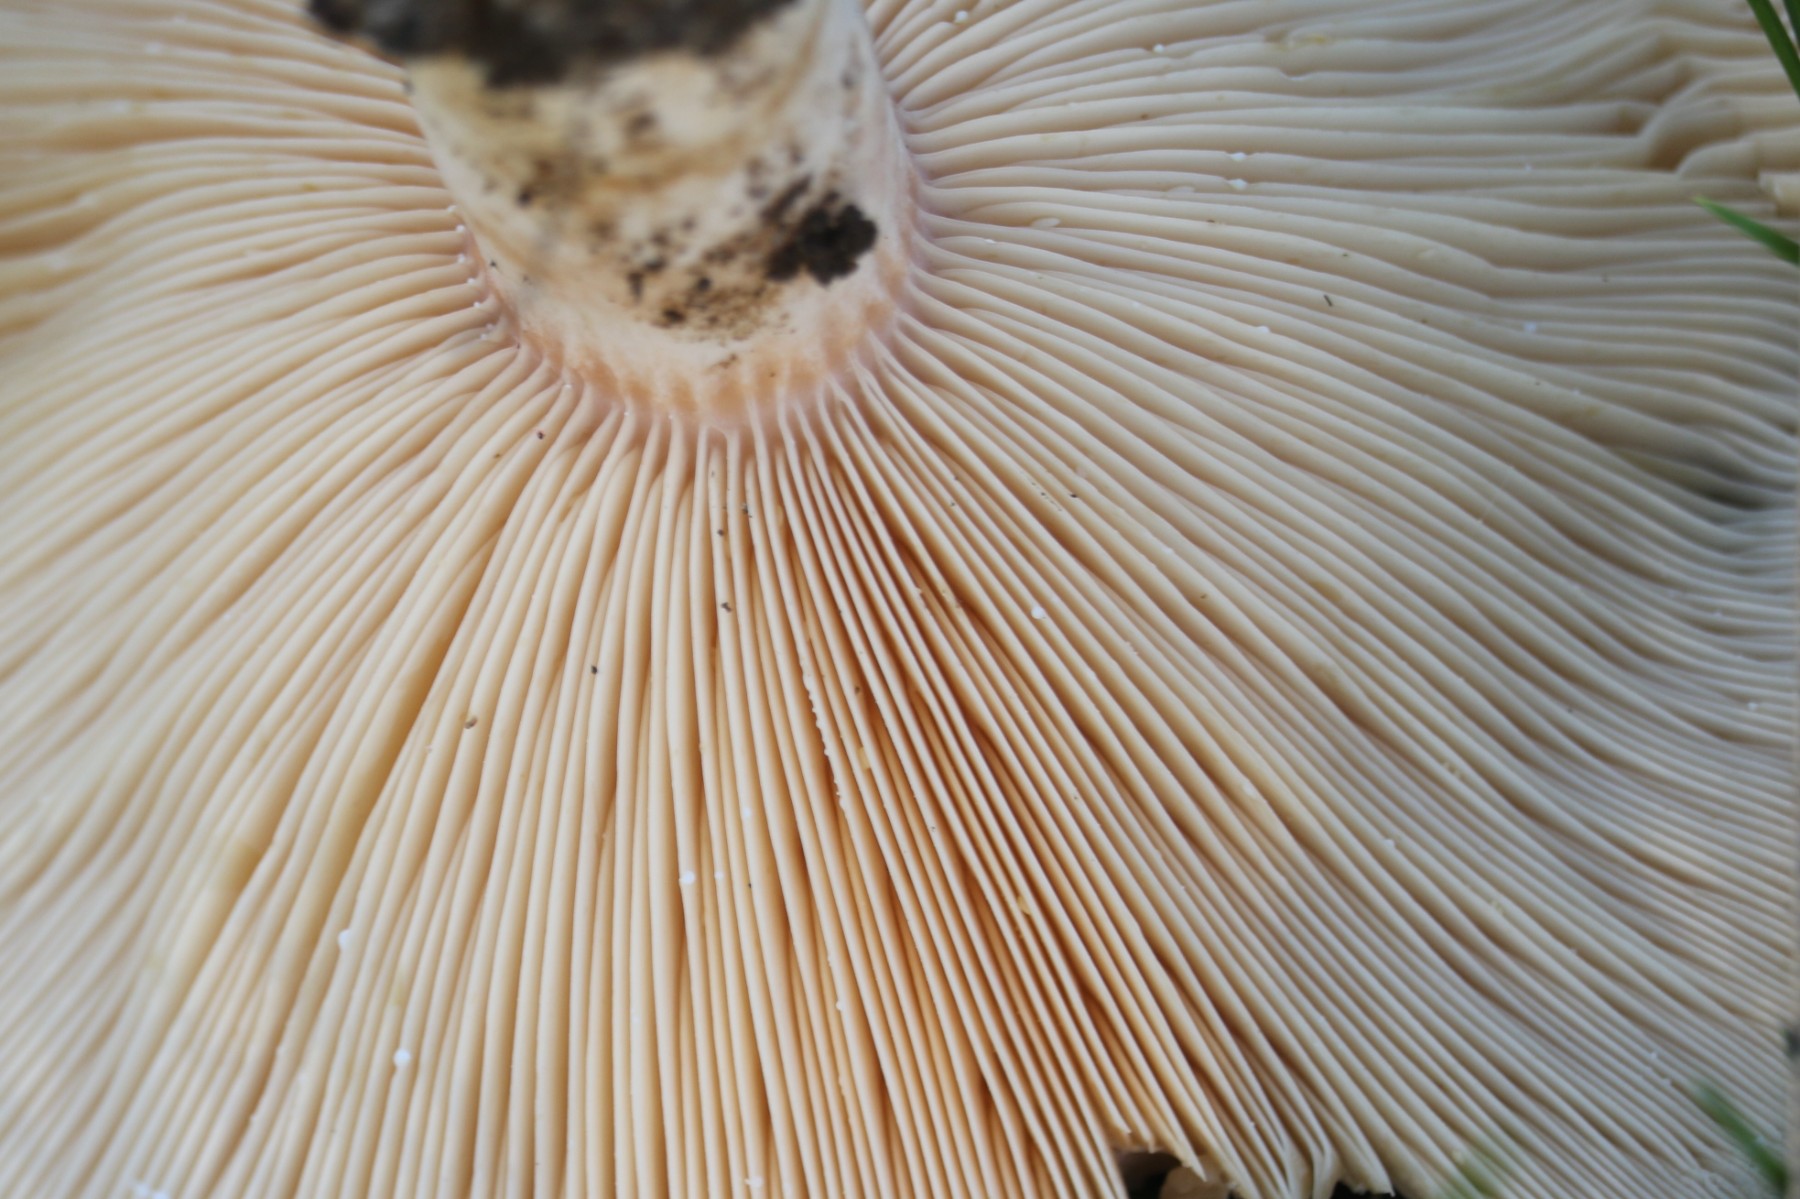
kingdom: Fungi
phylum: Basidiomycota
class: Agaricomycetes
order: Russulales
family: Russulaceae
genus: Lactarius
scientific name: Lactarius pubescens
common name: dunet mælkehat
